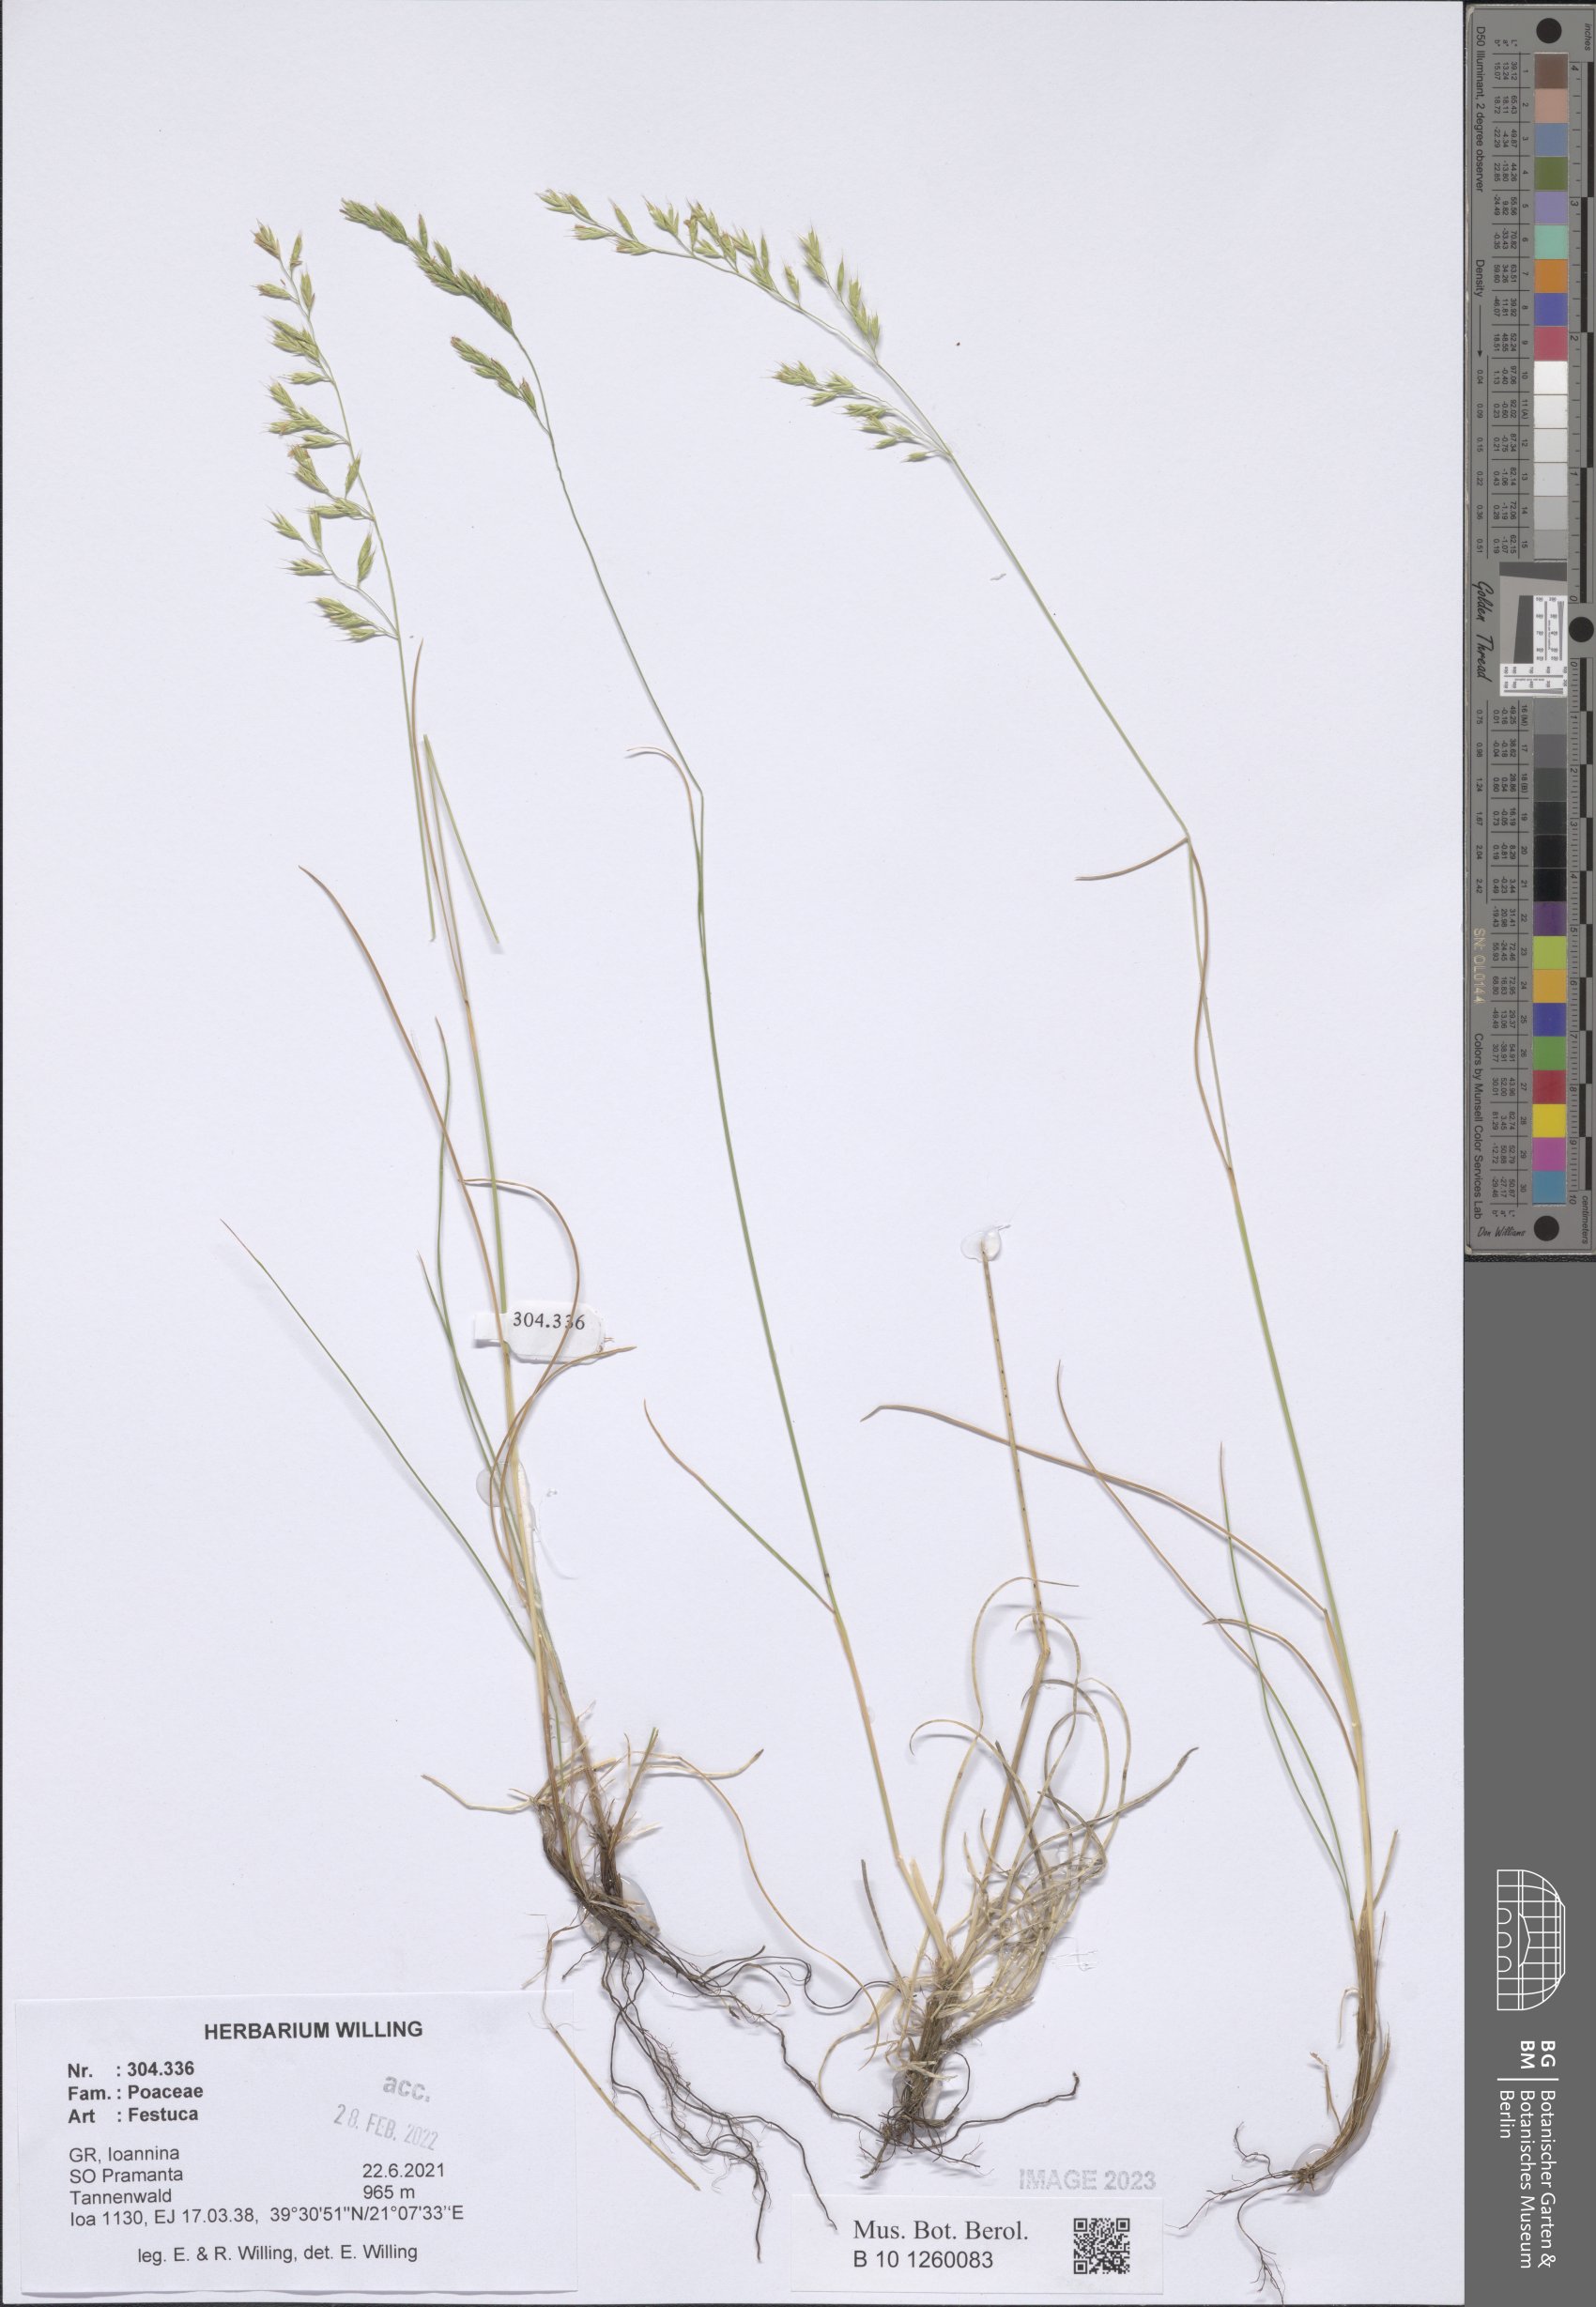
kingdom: Plantae
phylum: Tracheophyta
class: Liliopsida
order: Poales
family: Poaceae
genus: Festuca
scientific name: Festuca
